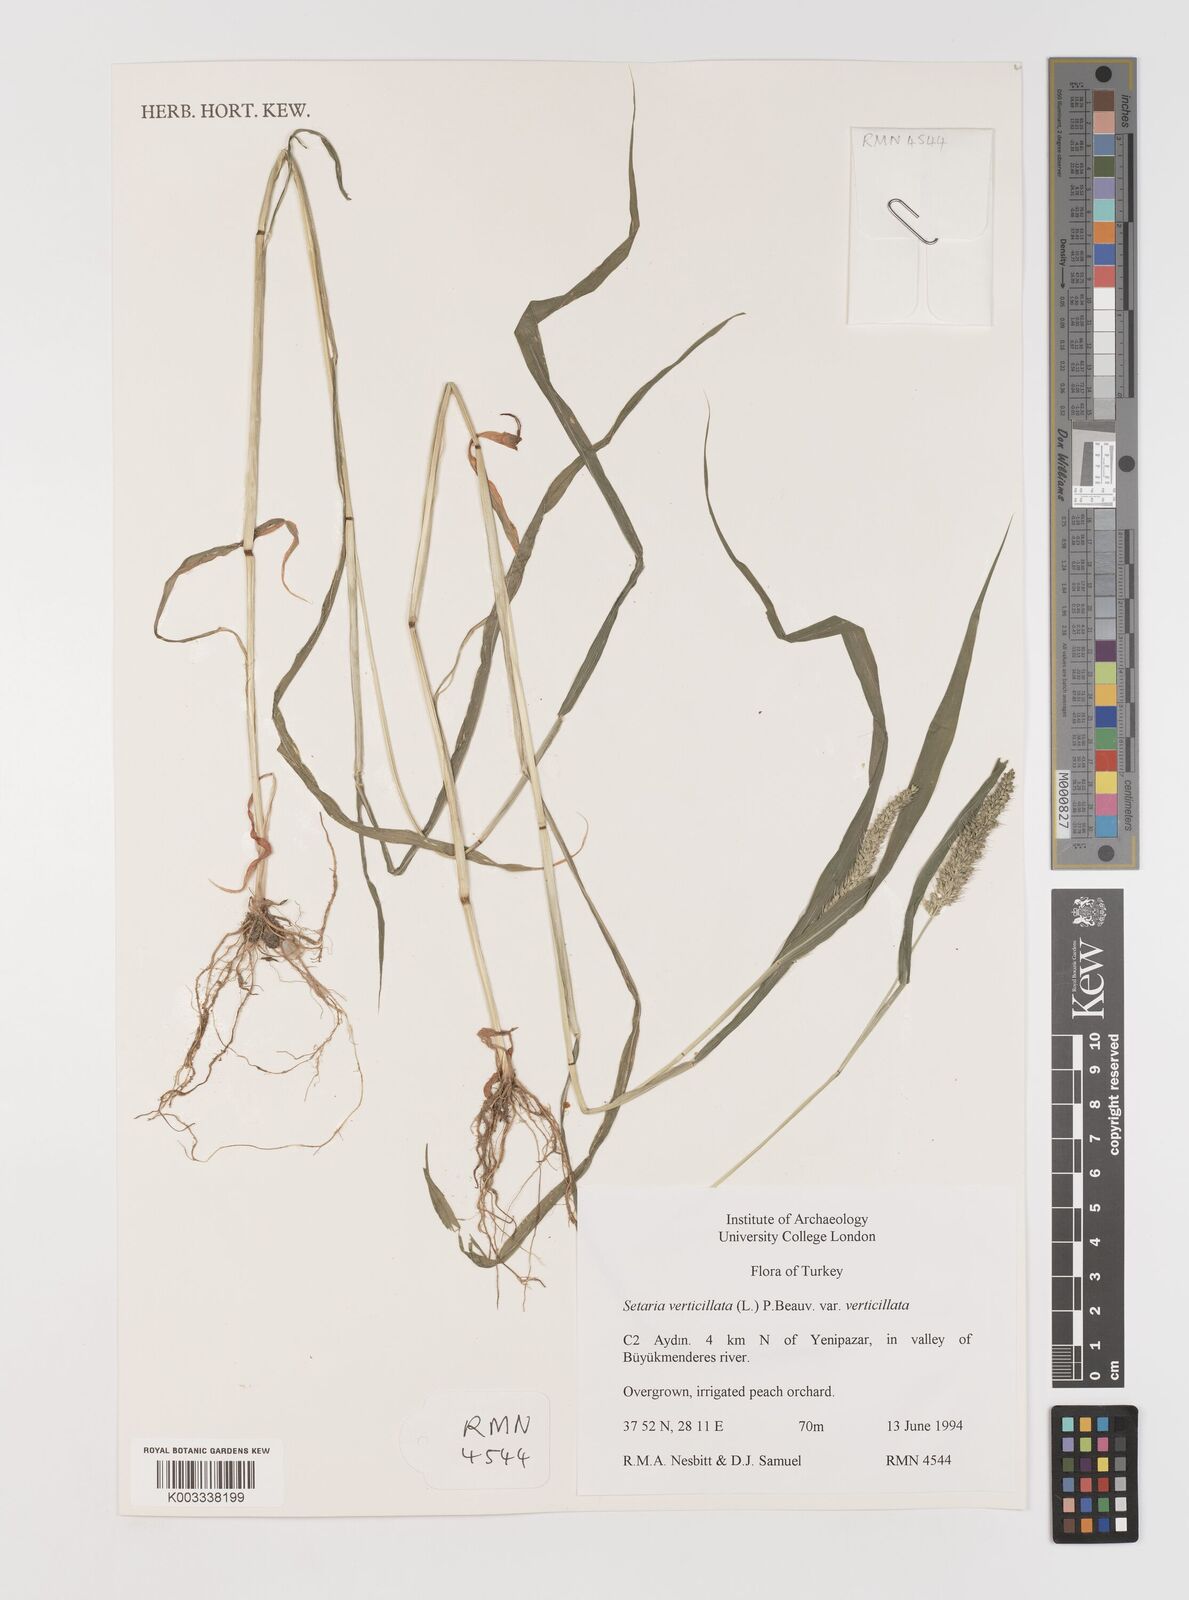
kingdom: Plantae
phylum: Tracheophyta
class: Liliopsida
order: Poales
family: Poaceae
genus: Setaria
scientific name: Setaria verticillata
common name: Hooked bristlegrass
